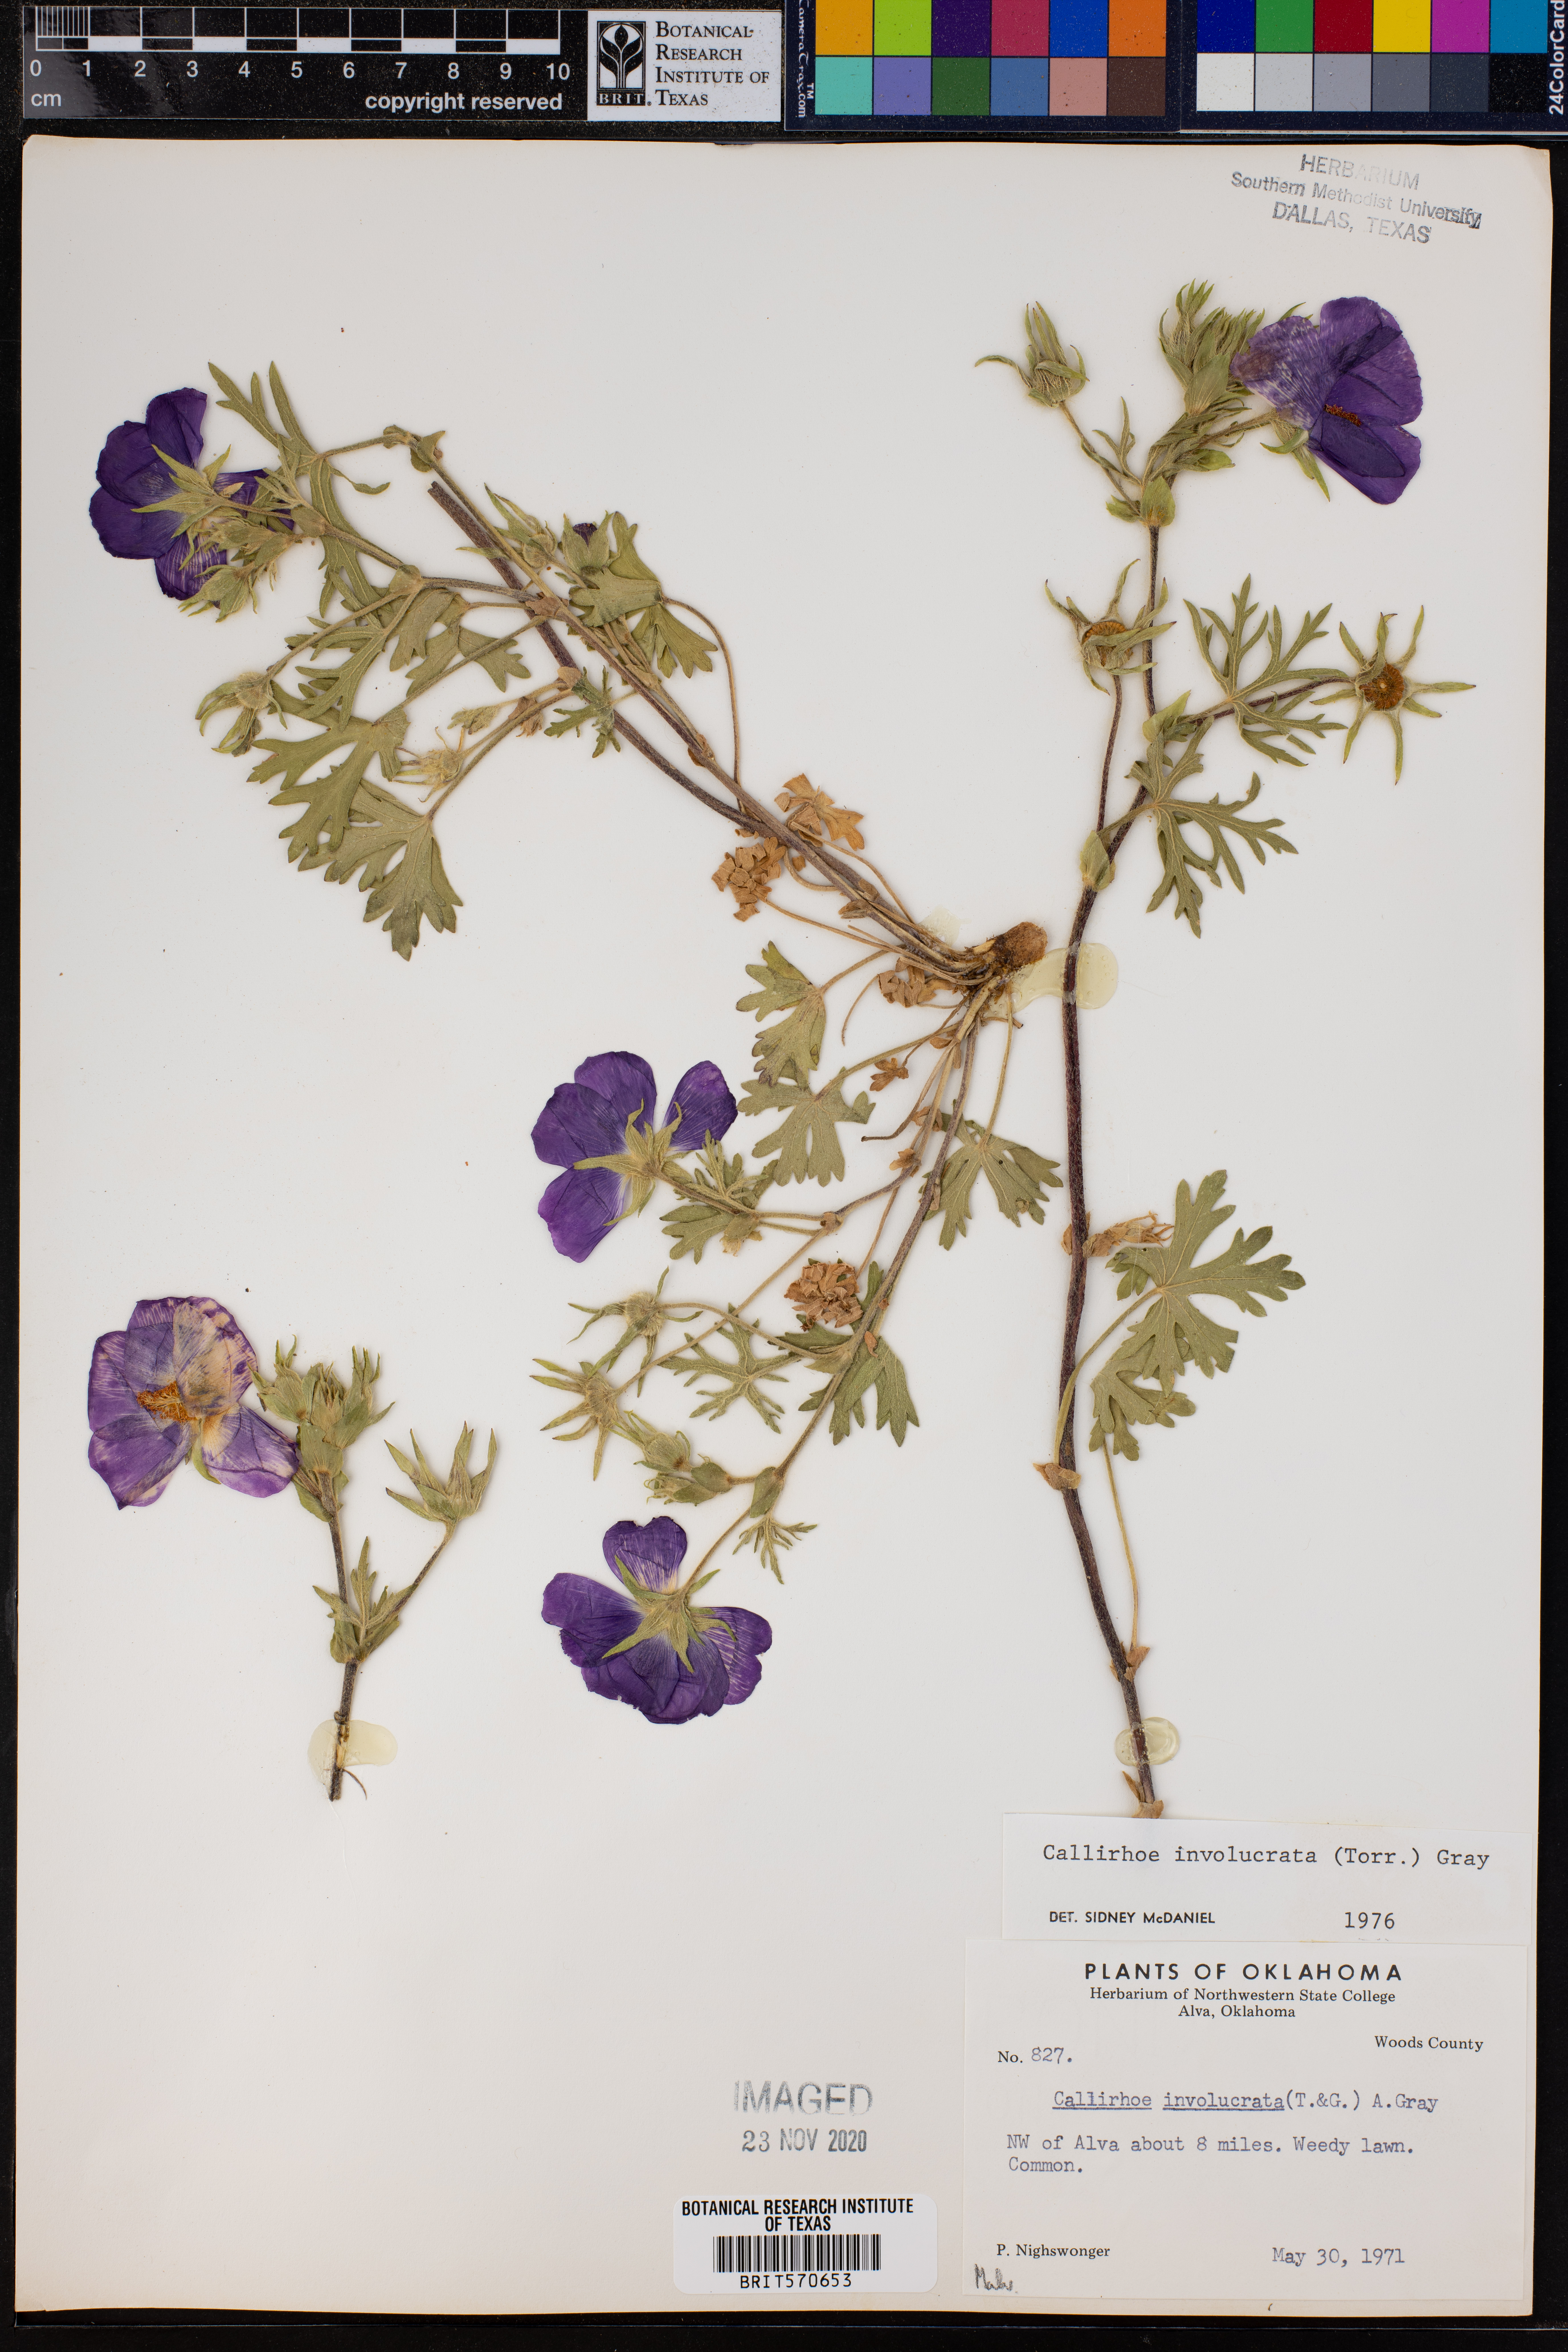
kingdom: Plantae
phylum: Tracheophyta
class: Magnoliopsida
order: Malvales
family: Malvaceae
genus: Callirhoe
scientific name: Callirhoe involucrata
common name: Purple poppy-mallow
